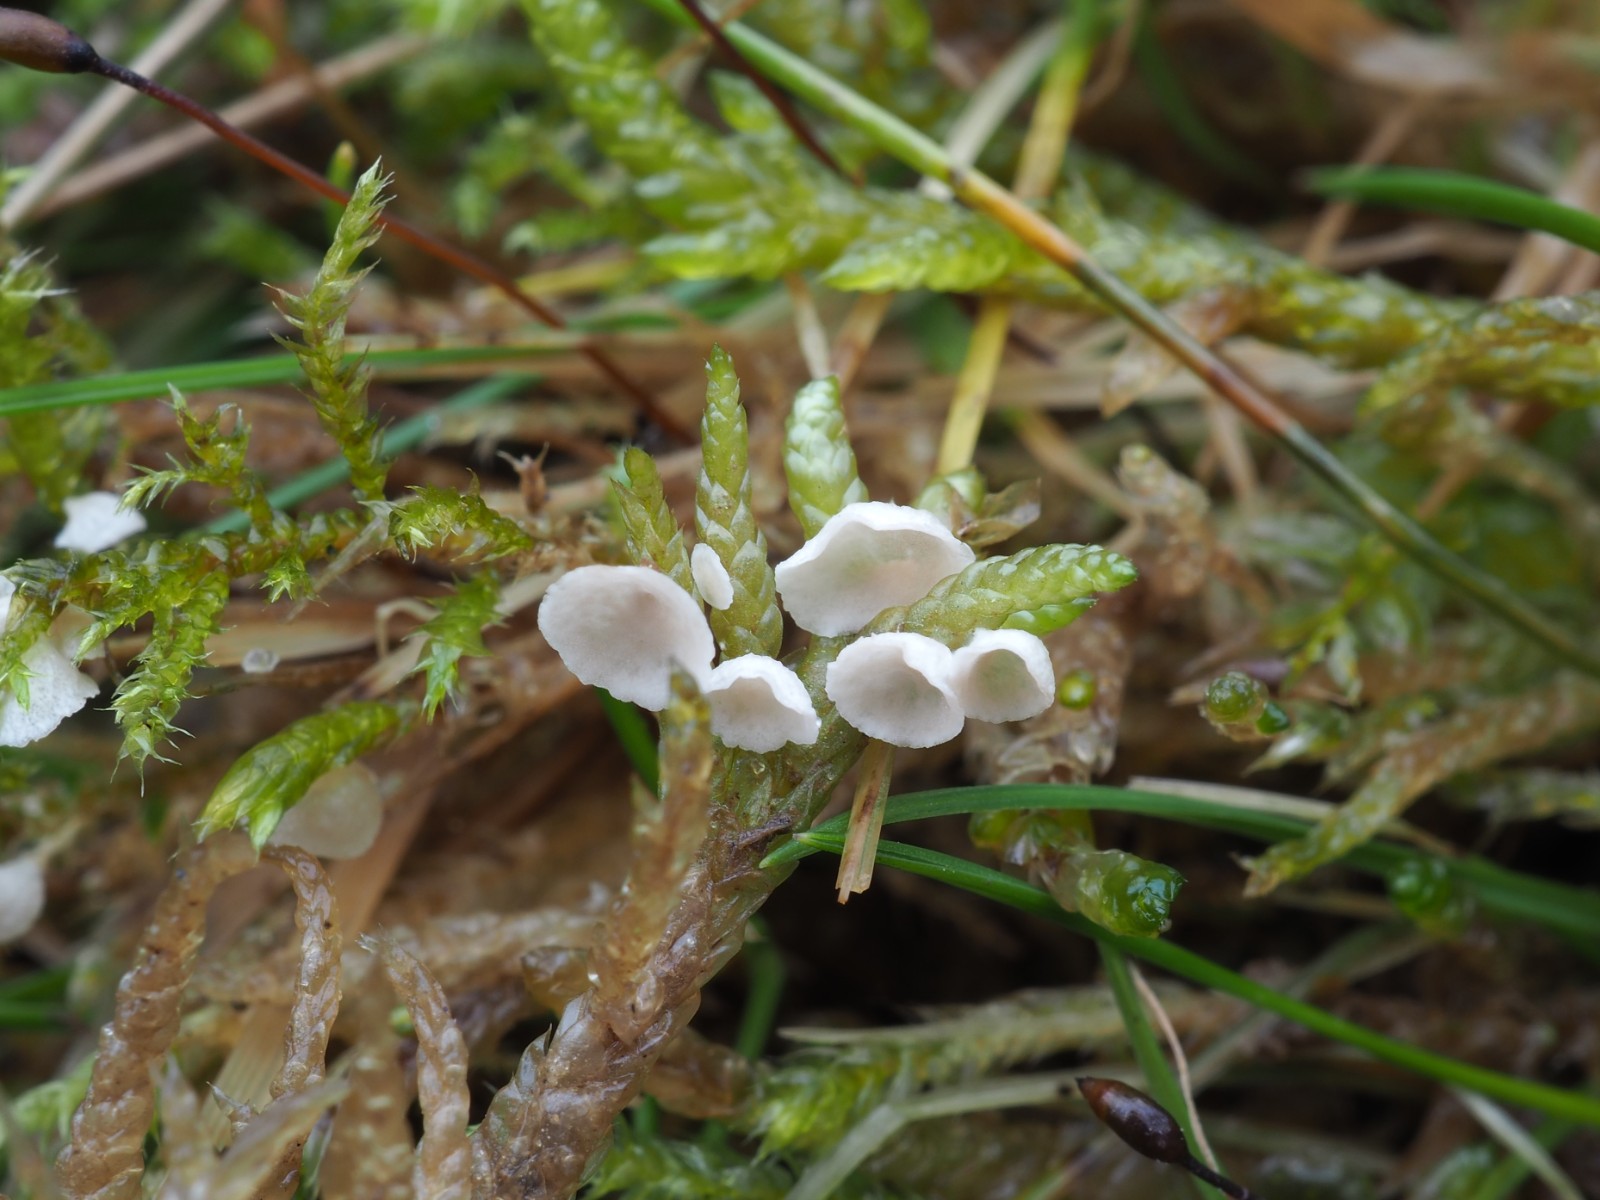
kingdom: Fungi
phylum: Basidiomycota
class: Agaricomycetes
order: Agaricales
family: Hygrophoraceae
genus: Arrhenia
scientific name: Arrhenia retiruga
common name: lille fontænehat
